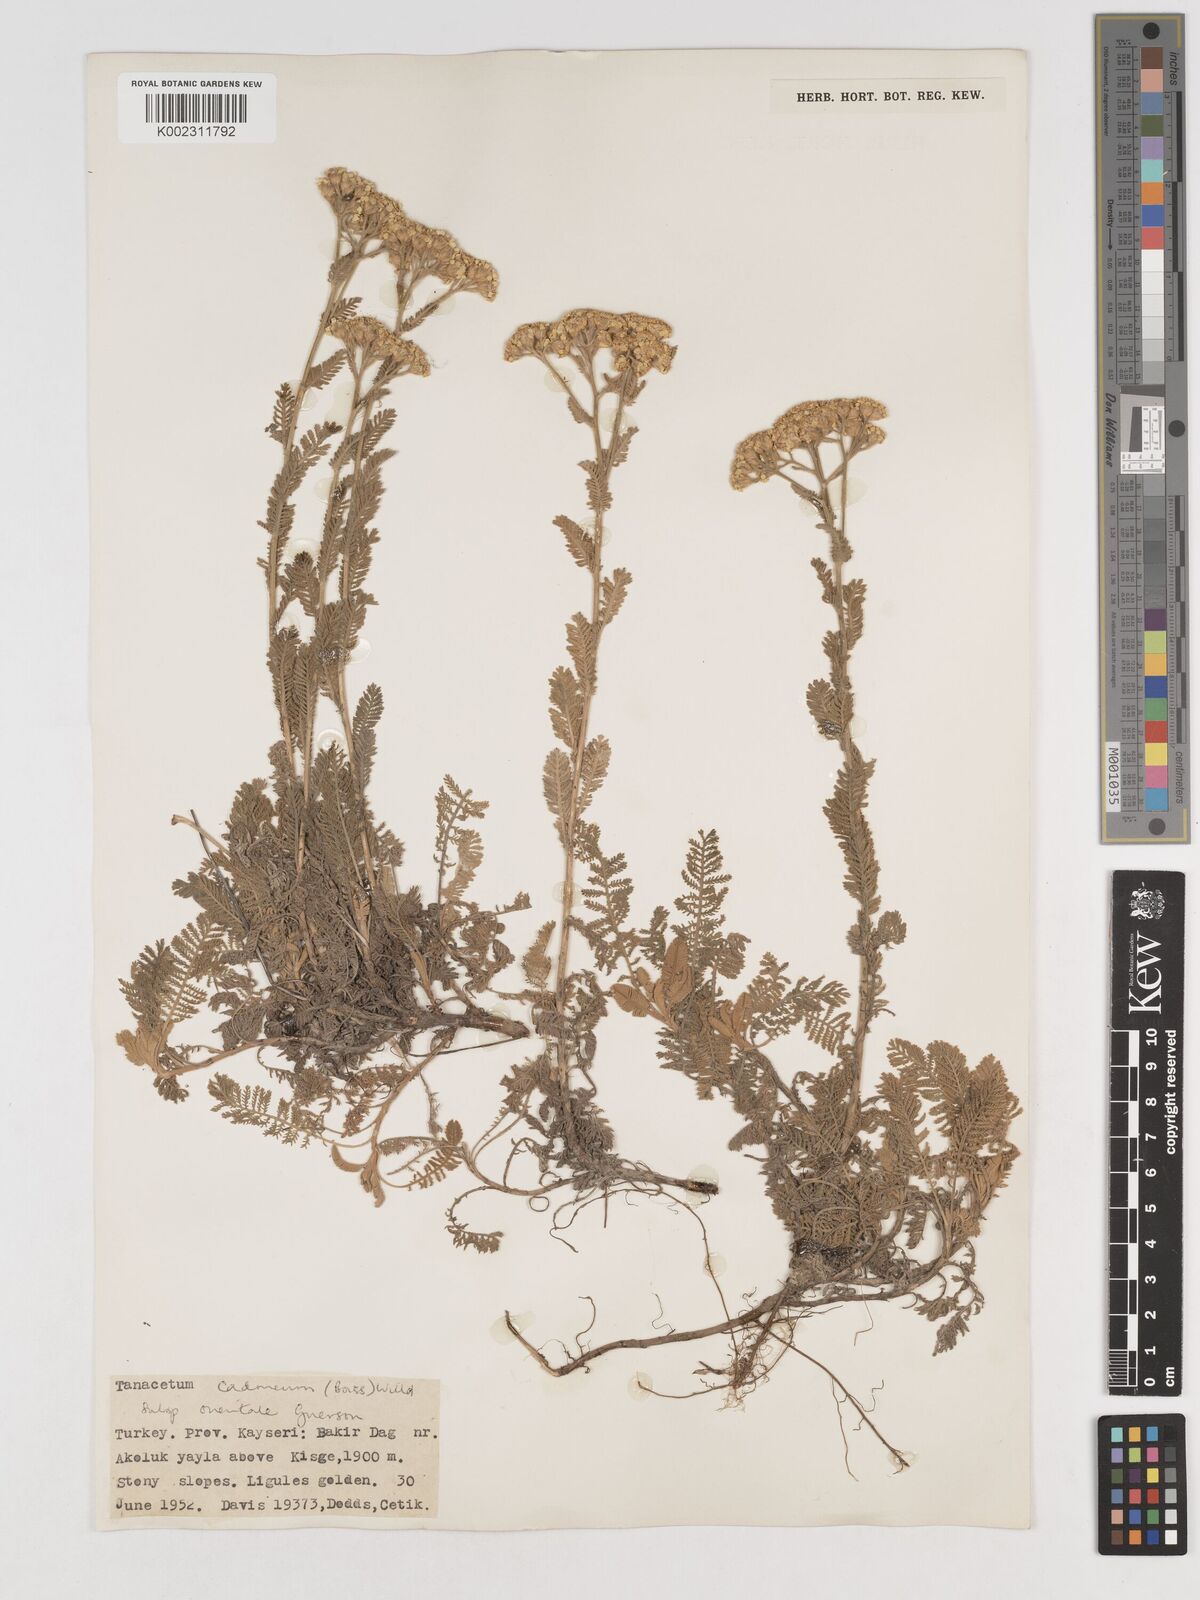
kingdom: Plantae
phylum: Tracheophyta
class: Magnoliopsida
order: Asterales
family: Asteraceae
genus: Tanacetum
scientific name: Tanacetum cadmeum
